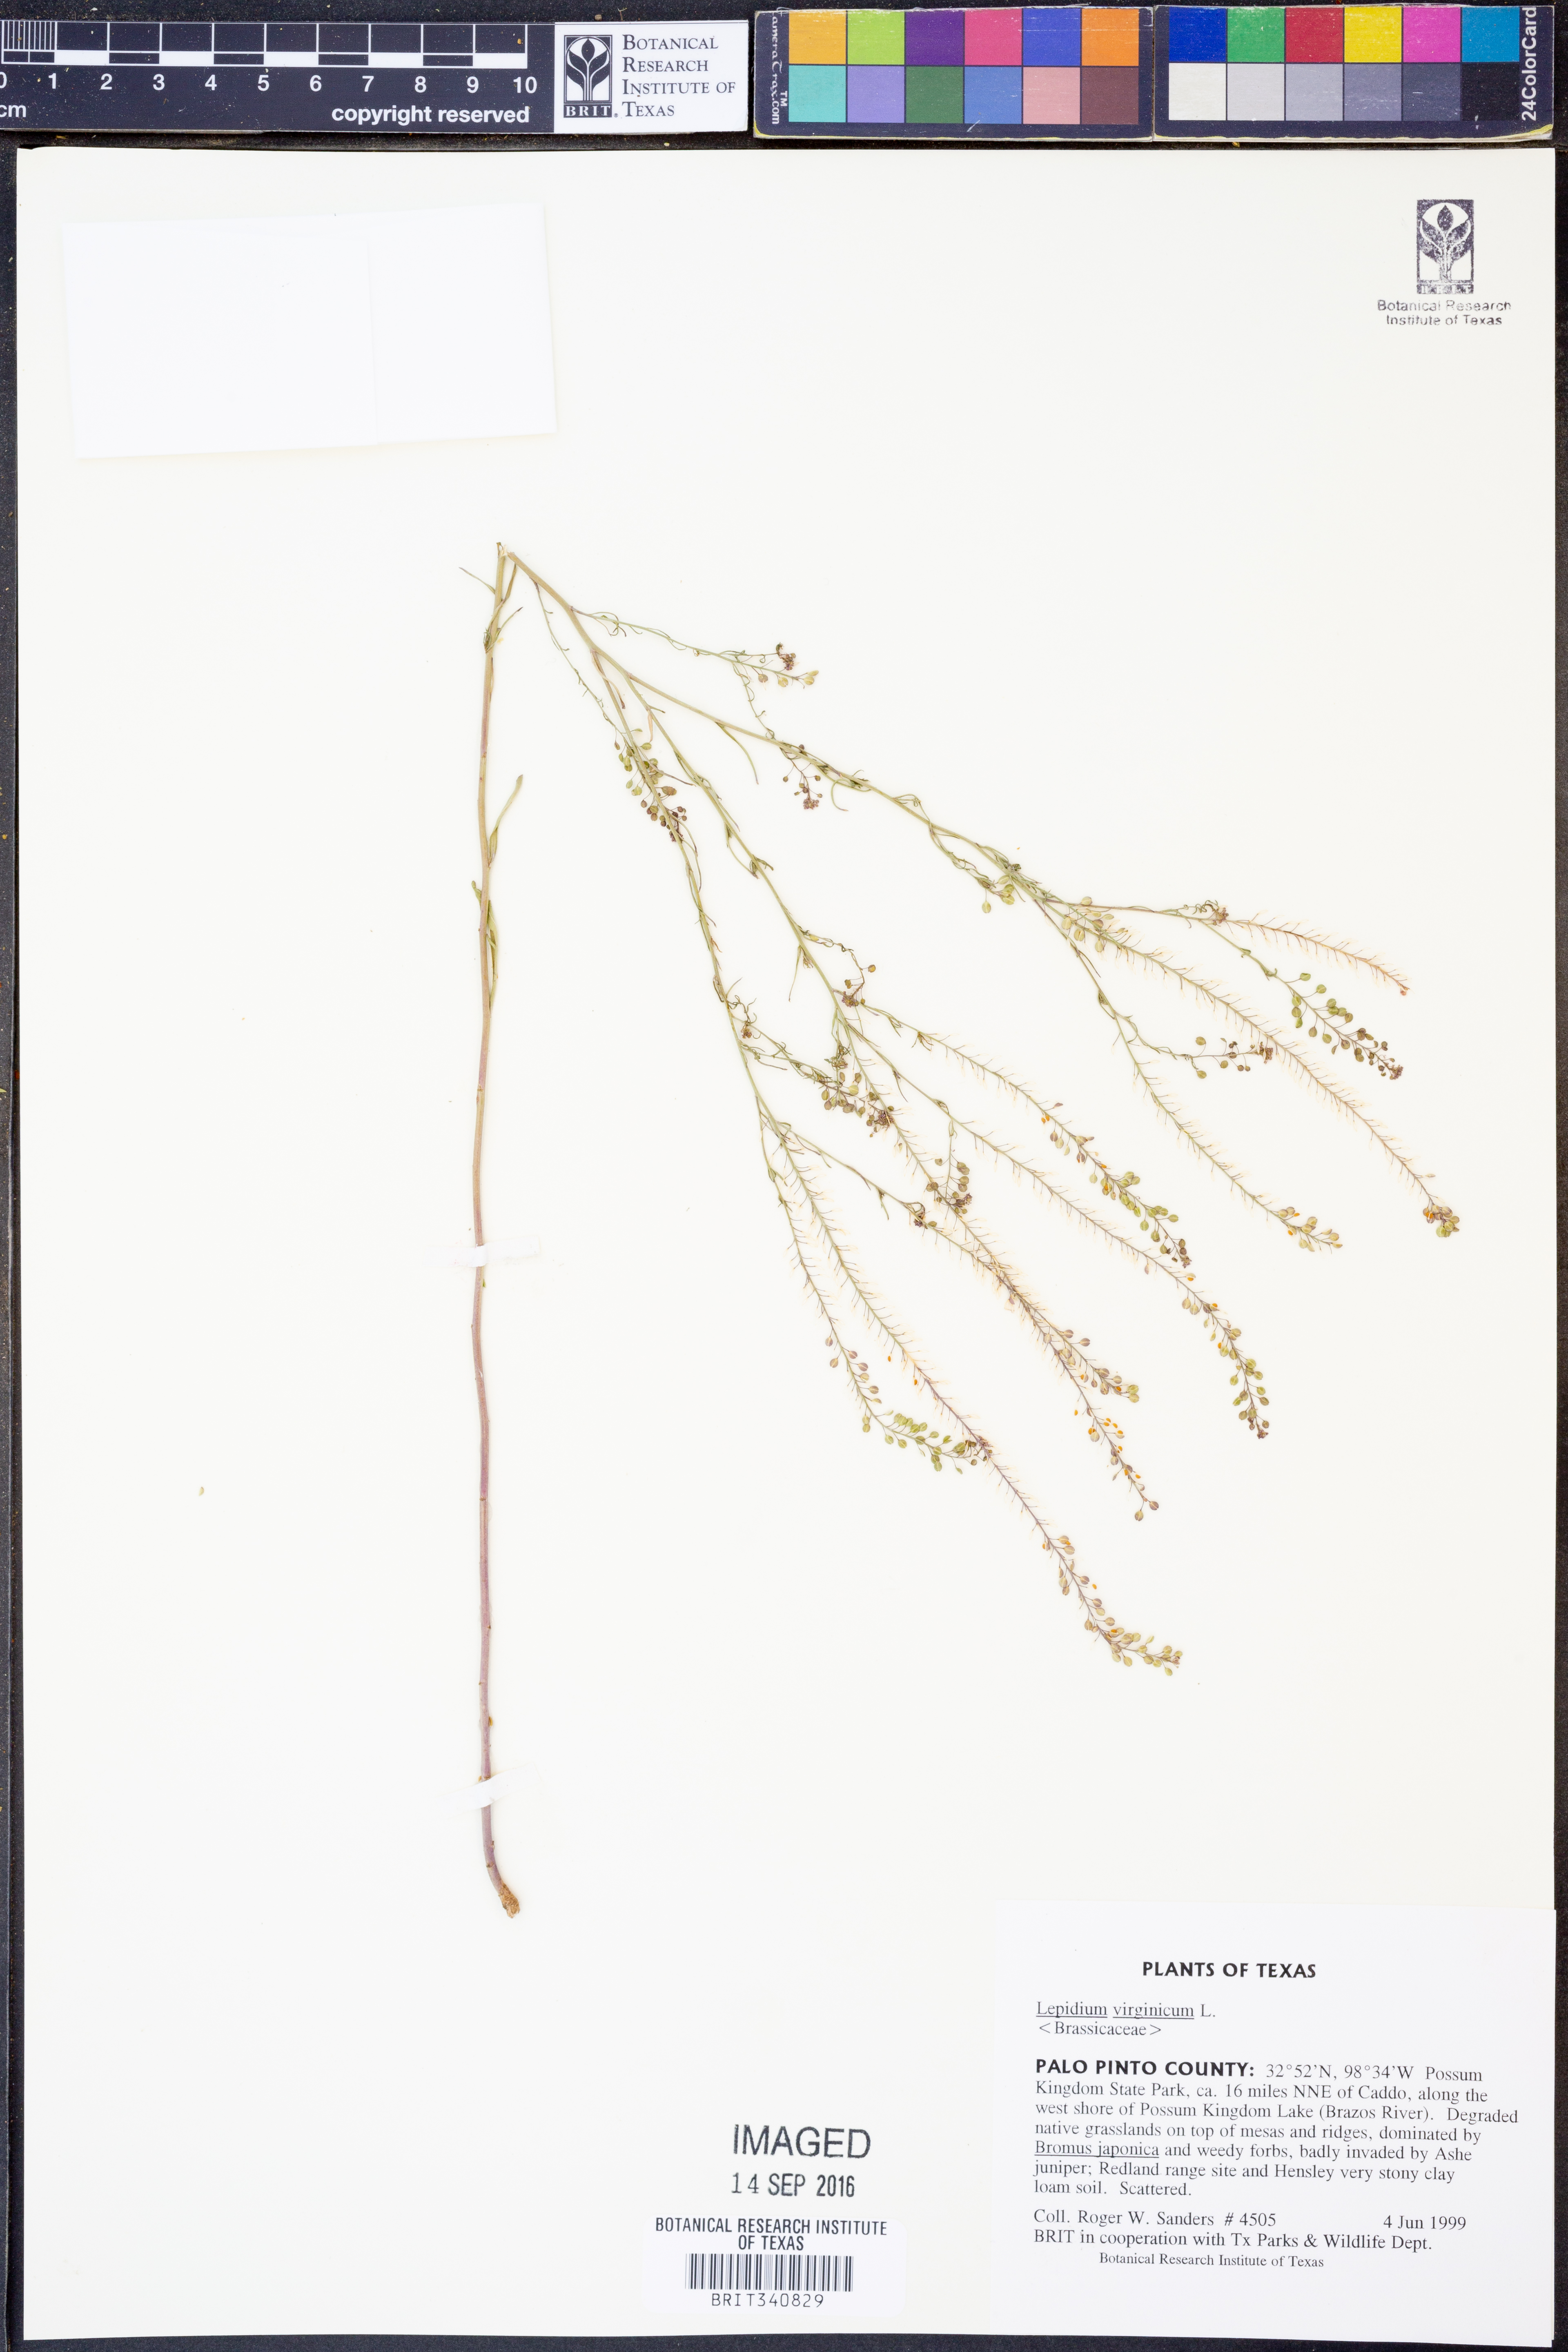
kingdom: Plantae
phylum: Tracheophyta
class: Magnoliopsida
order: Brassicales
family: Brassicaceae
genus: Lepidium
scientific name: Lepidium virginicum
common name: Least pepperwort
